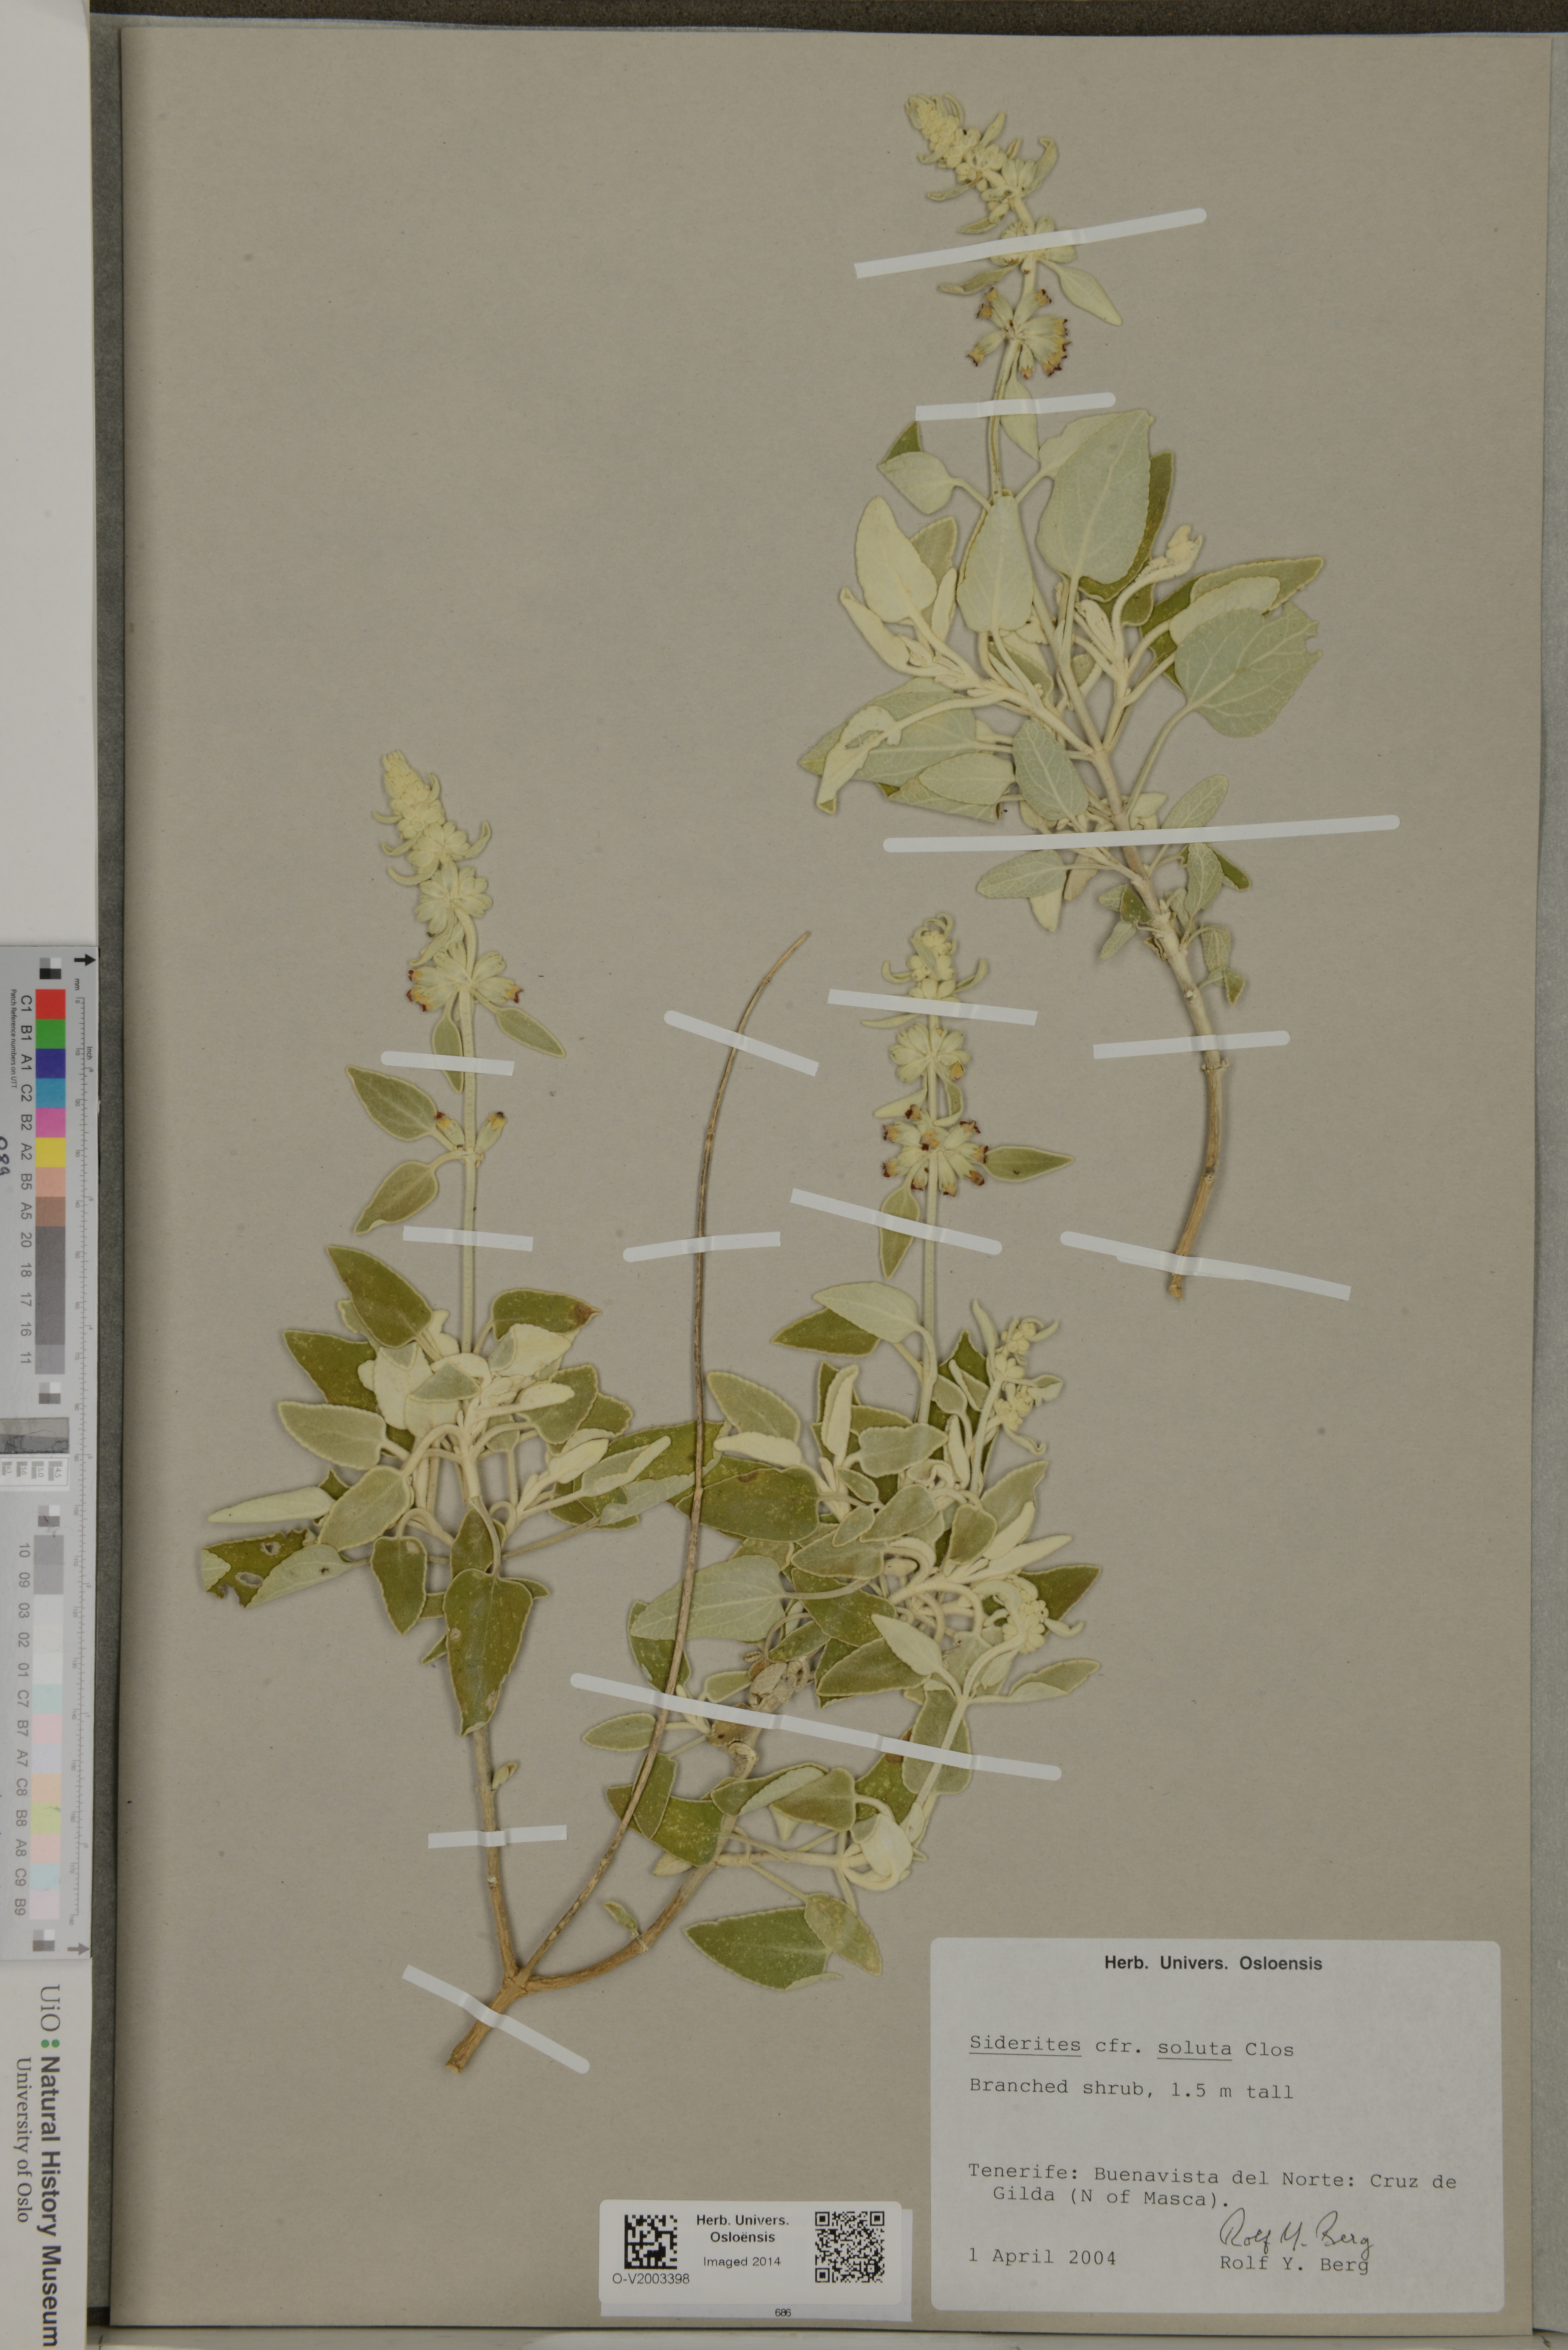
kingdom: Plantae
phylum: Tracheophyta
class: Magnoliopsida
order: Lamiales
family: Lamiaceae
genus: Sideritis
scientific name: Sideritis soluta
